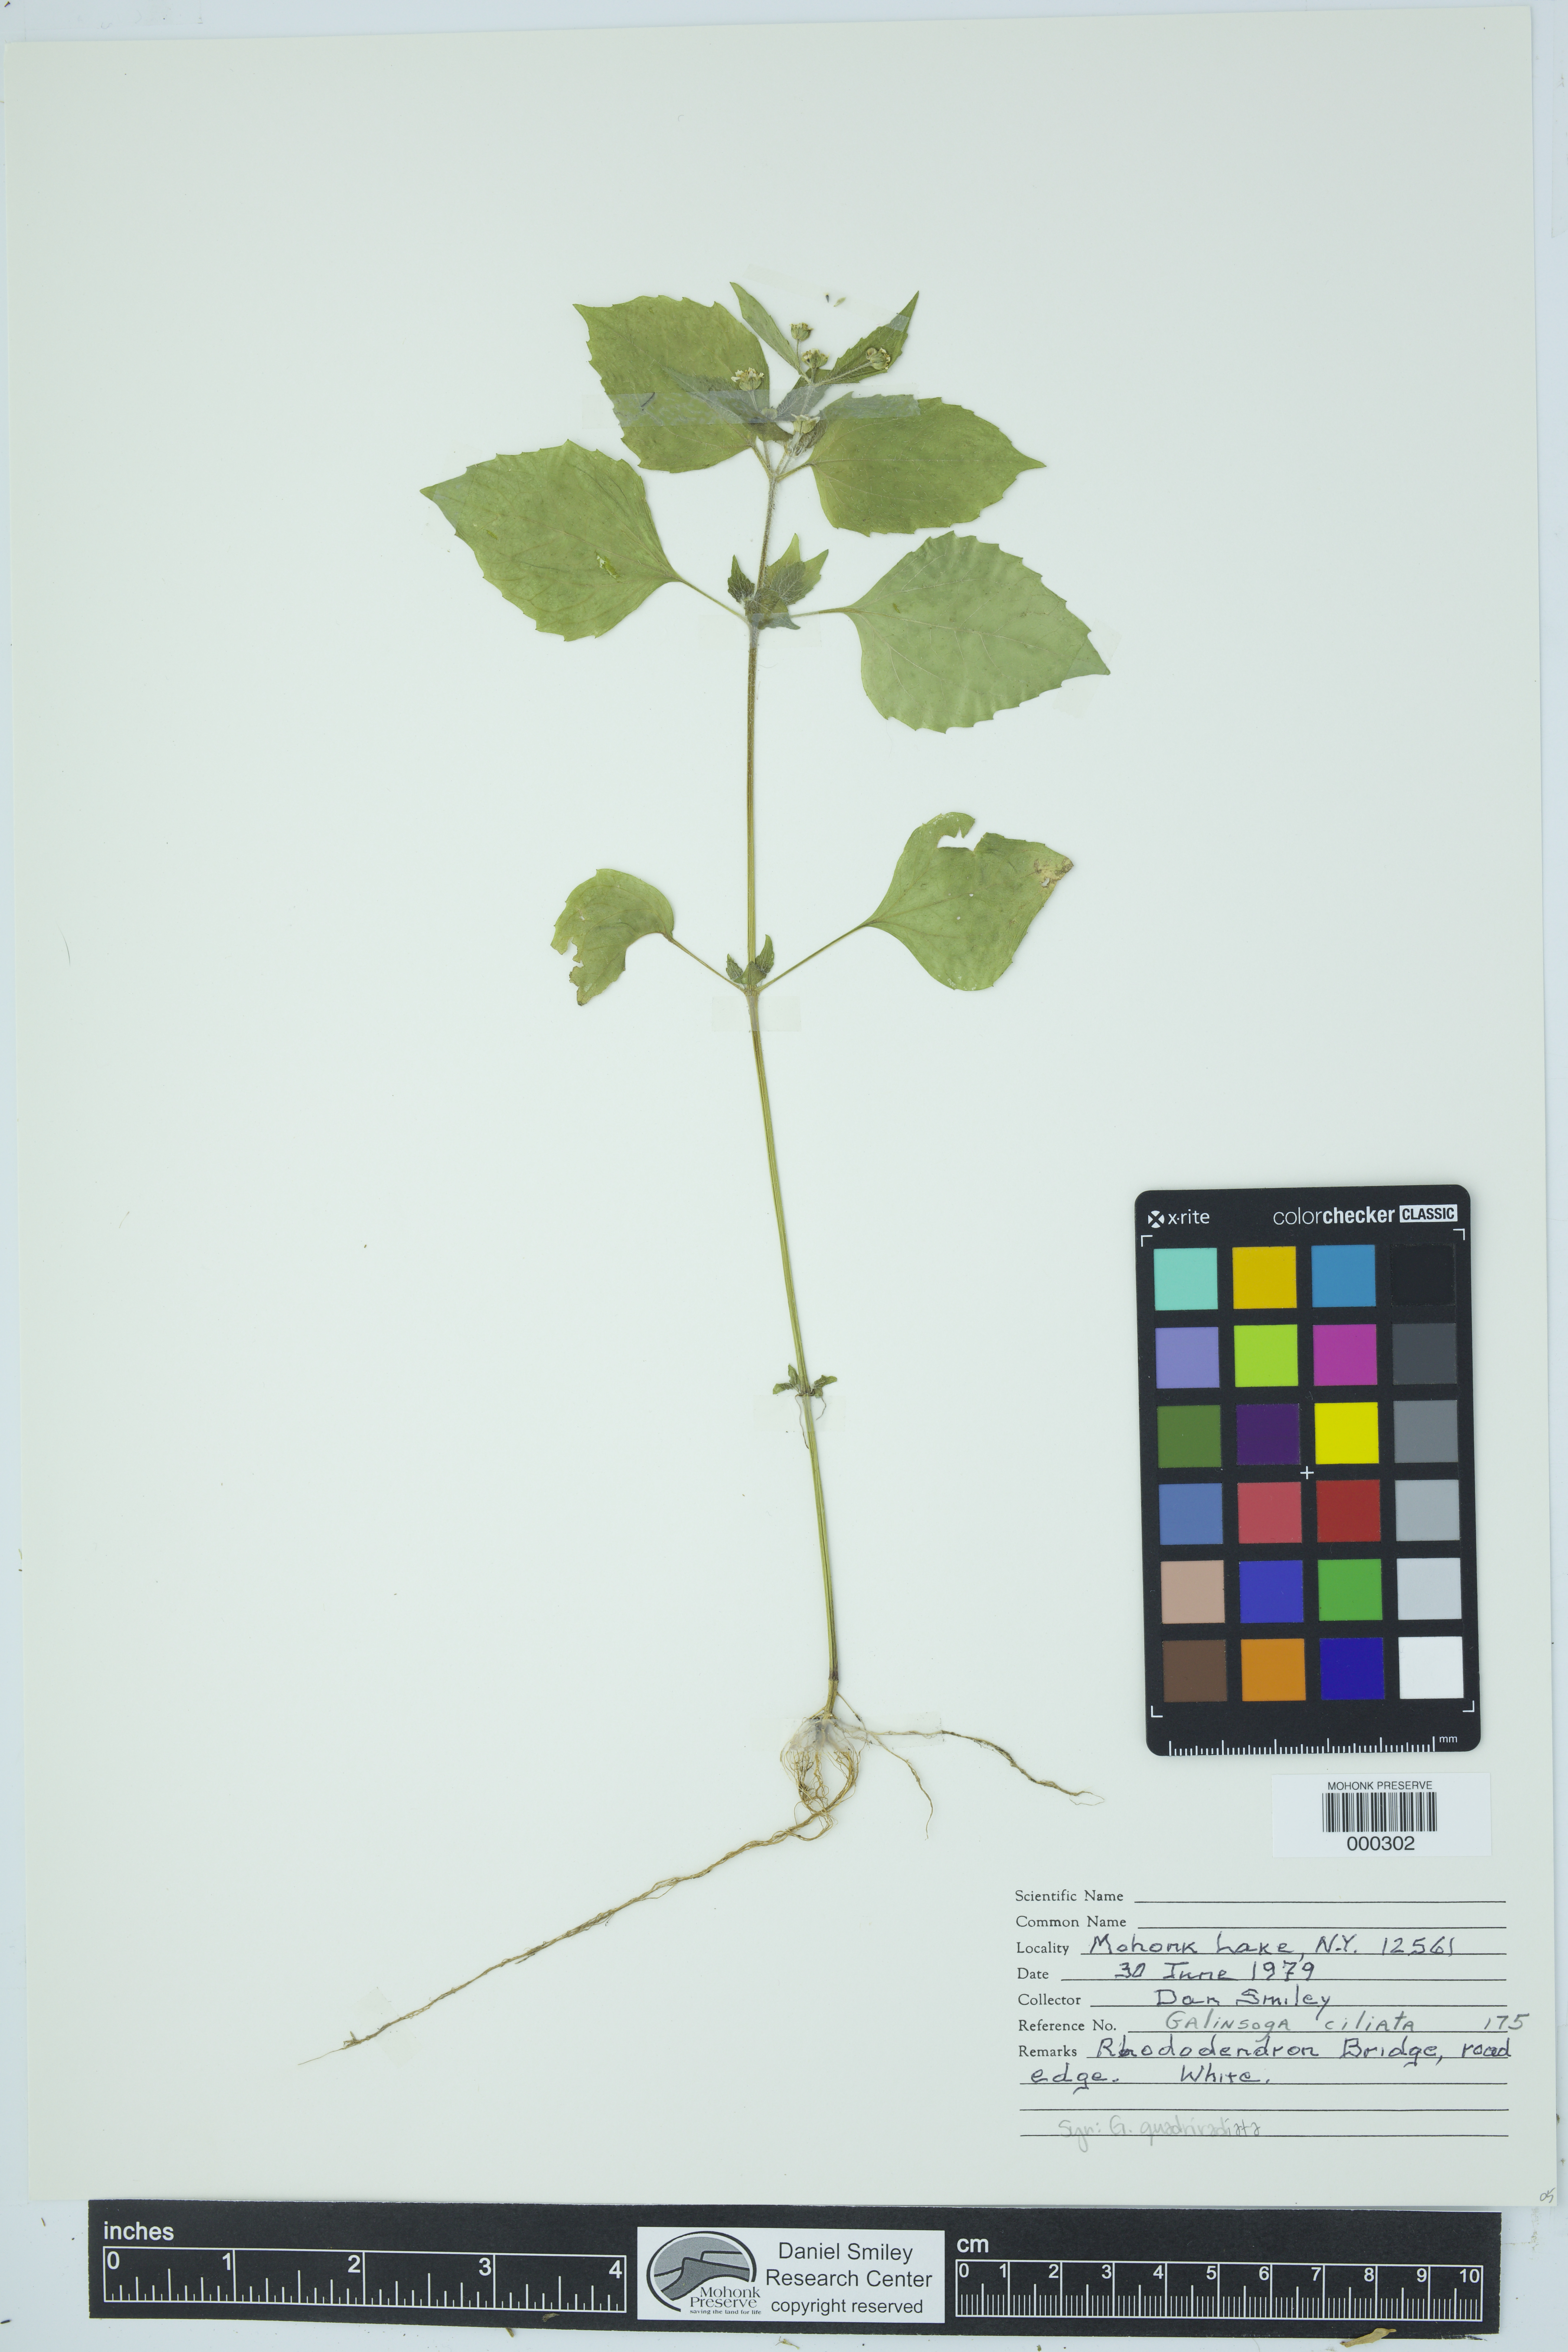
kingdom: Plantae
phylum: Tracheophyta
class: Magnoliopsida
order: Asterales
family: Asteraceae
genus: Galinsoga
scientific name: Galinsoga quadriradiata
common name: Shaggy soldier
